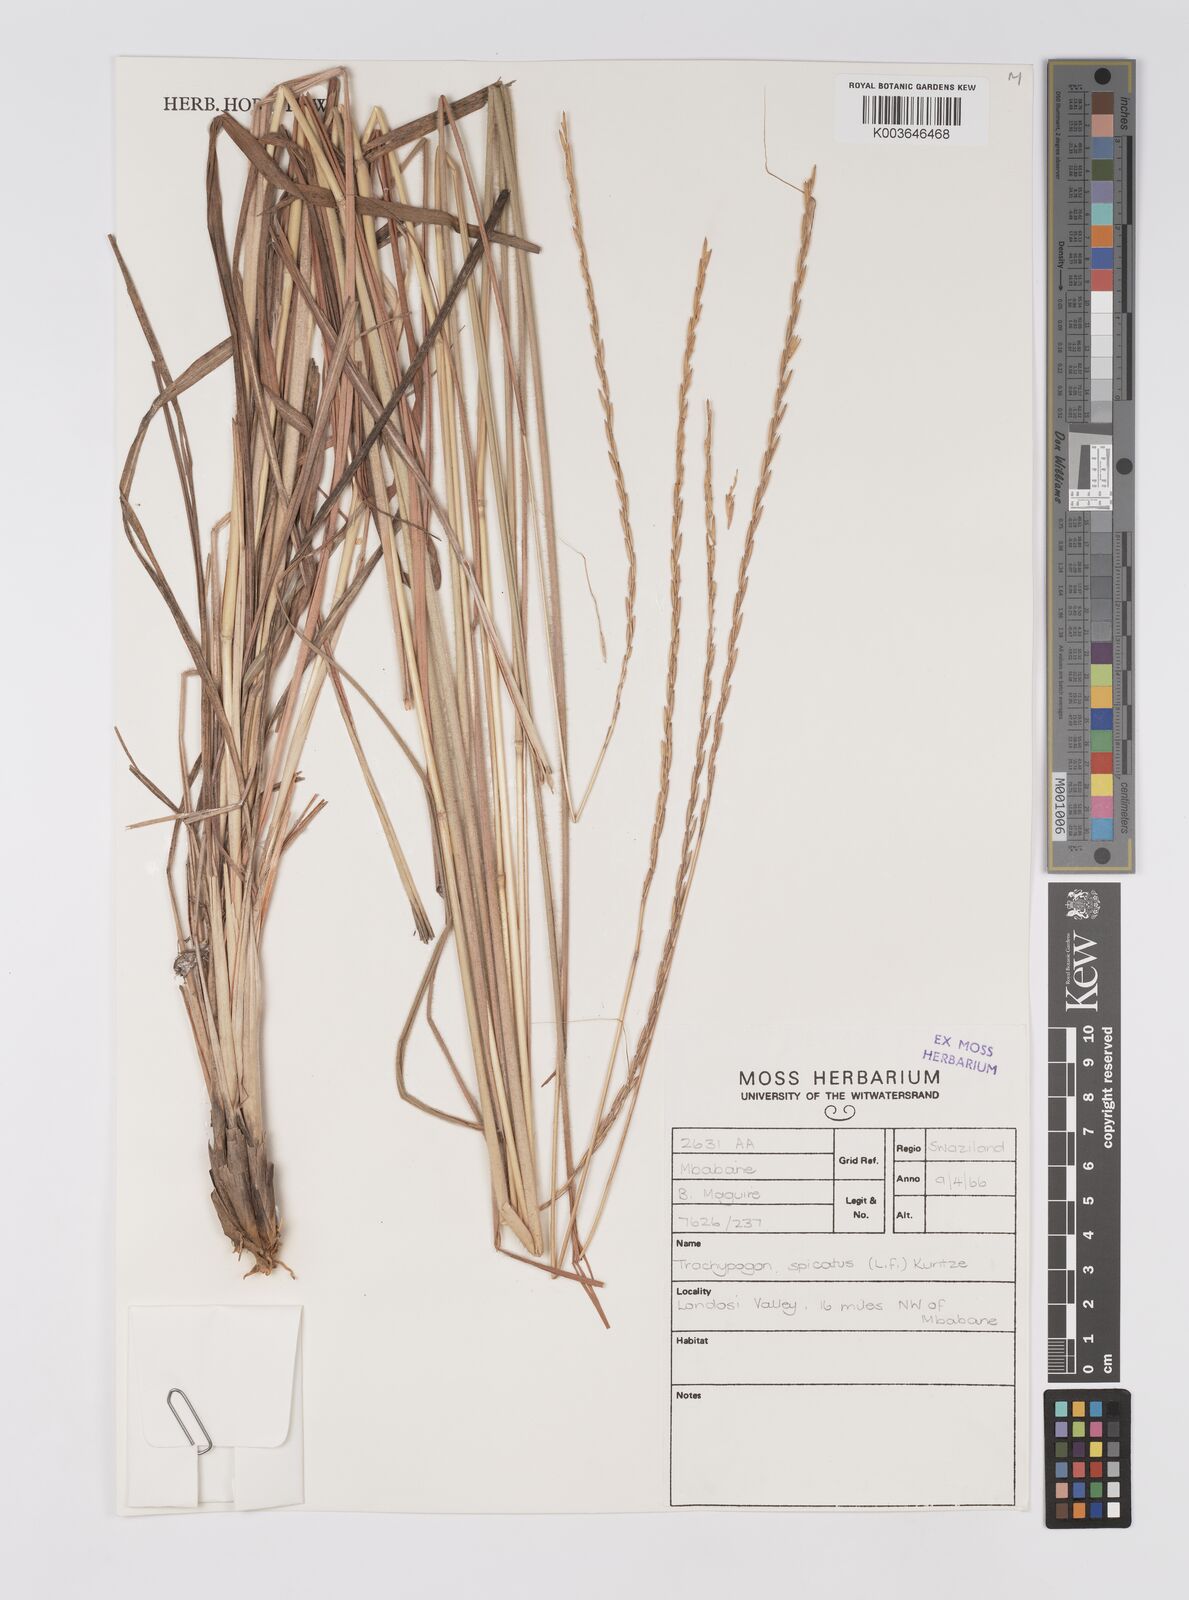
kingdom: Plantae
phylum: Tracheophyta
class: Liliopsida
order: Poales
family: Poaceae
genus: Trachypogon
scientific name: Trachypogon spicatus
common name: Crinkle-awn
